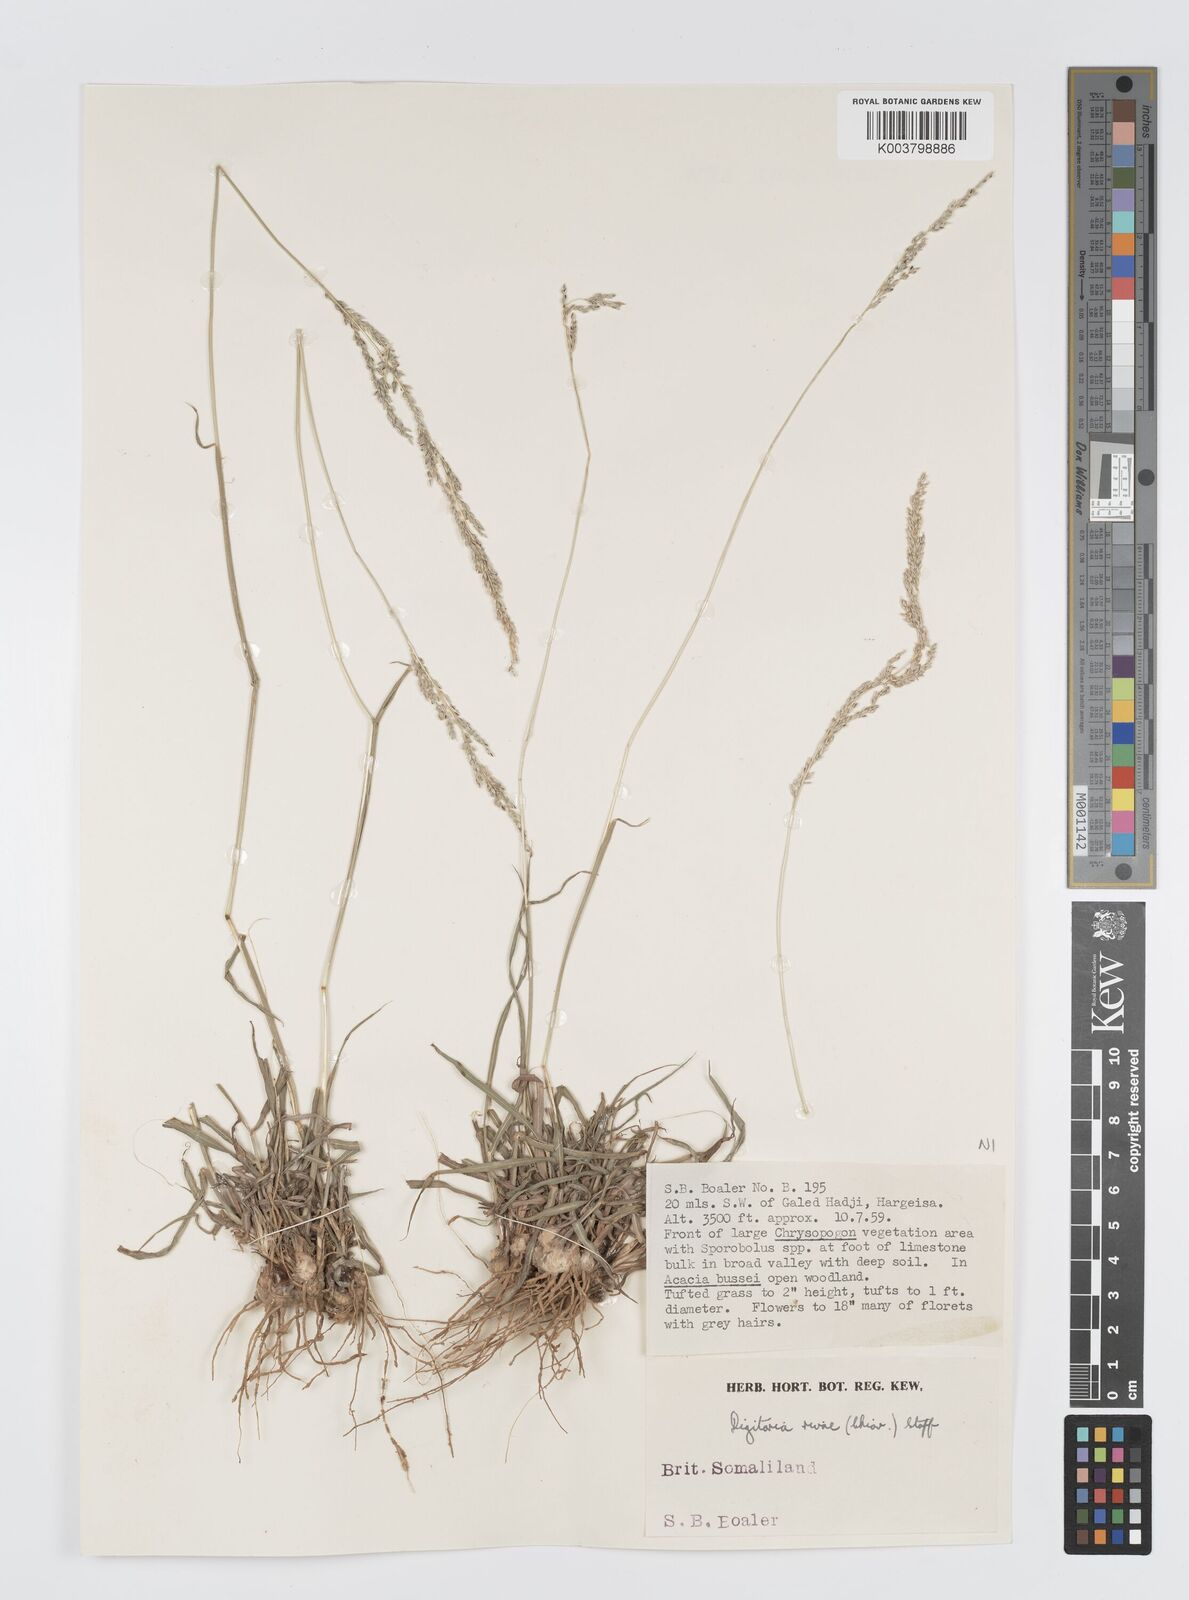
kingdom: Plantae
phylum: Tracheophyta
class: Liliopsida
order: Poales
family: Poaceae
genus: Digitaria
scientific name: Digitaria rivae
